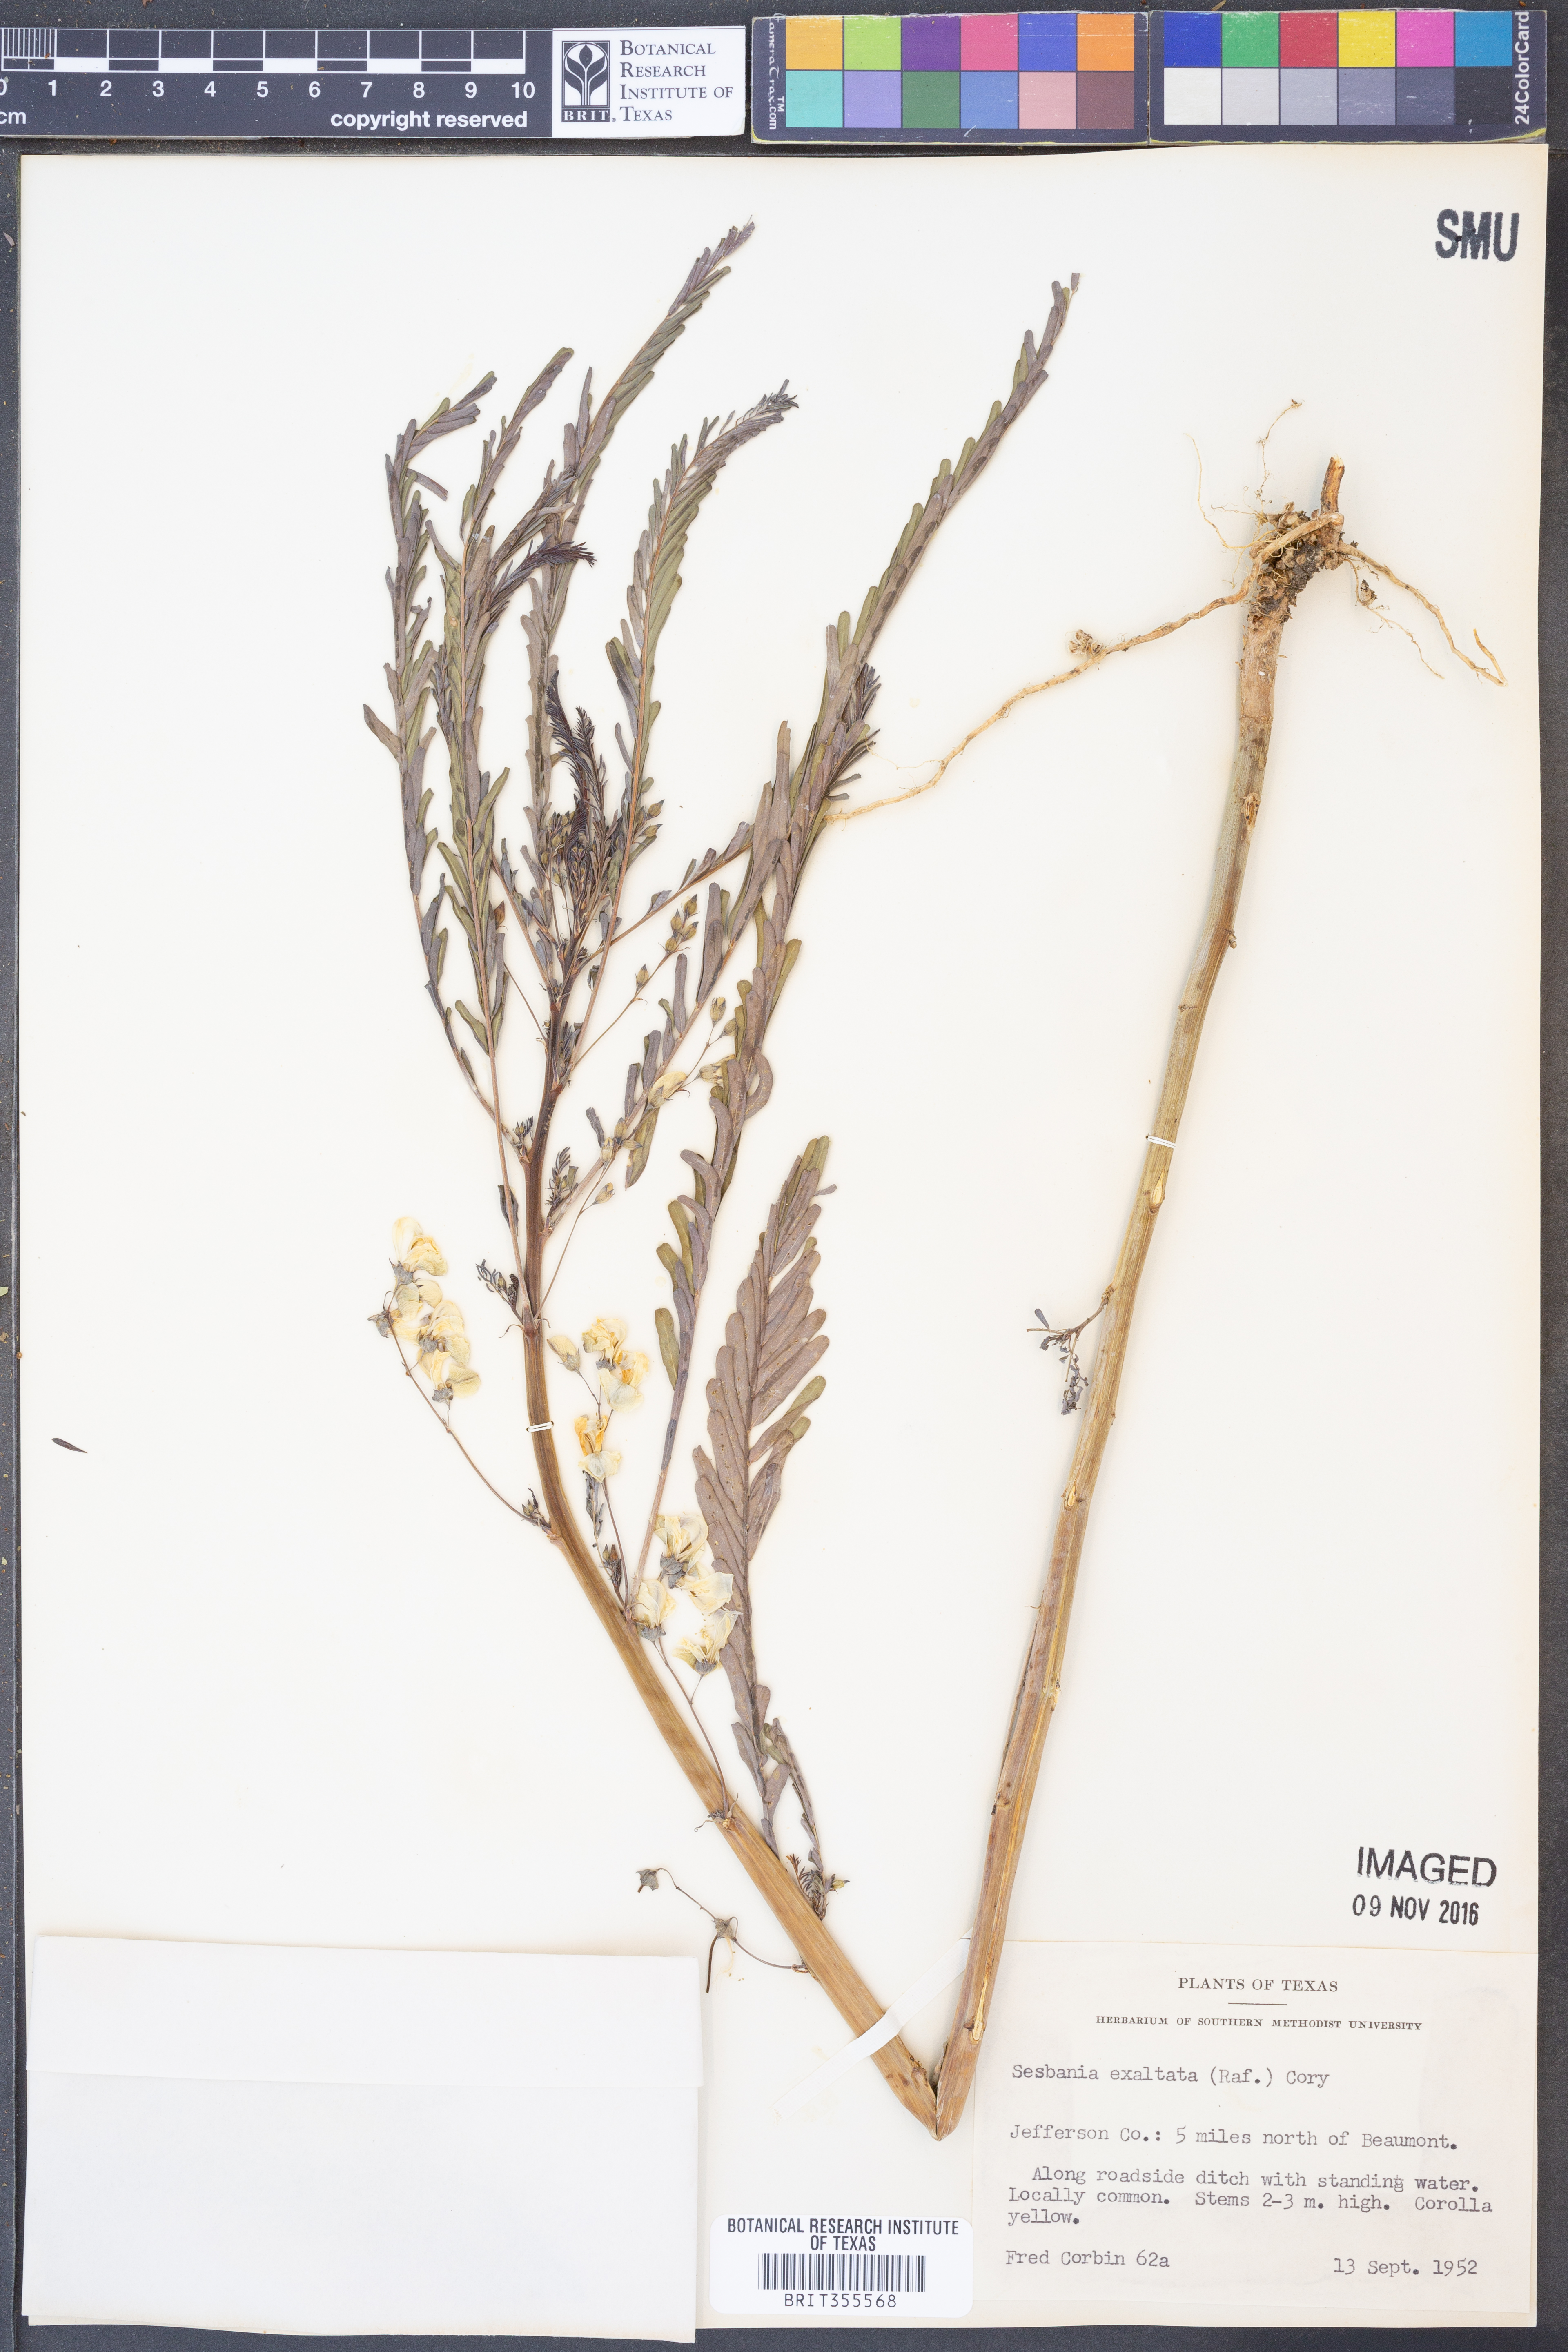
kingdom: Plantae
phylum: Tracheophyta
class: Magnoliopsida
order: Fabales
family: Fabaceae
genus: Sesbania
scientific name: Sesbania herbacea
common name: Bigpod sesbania
